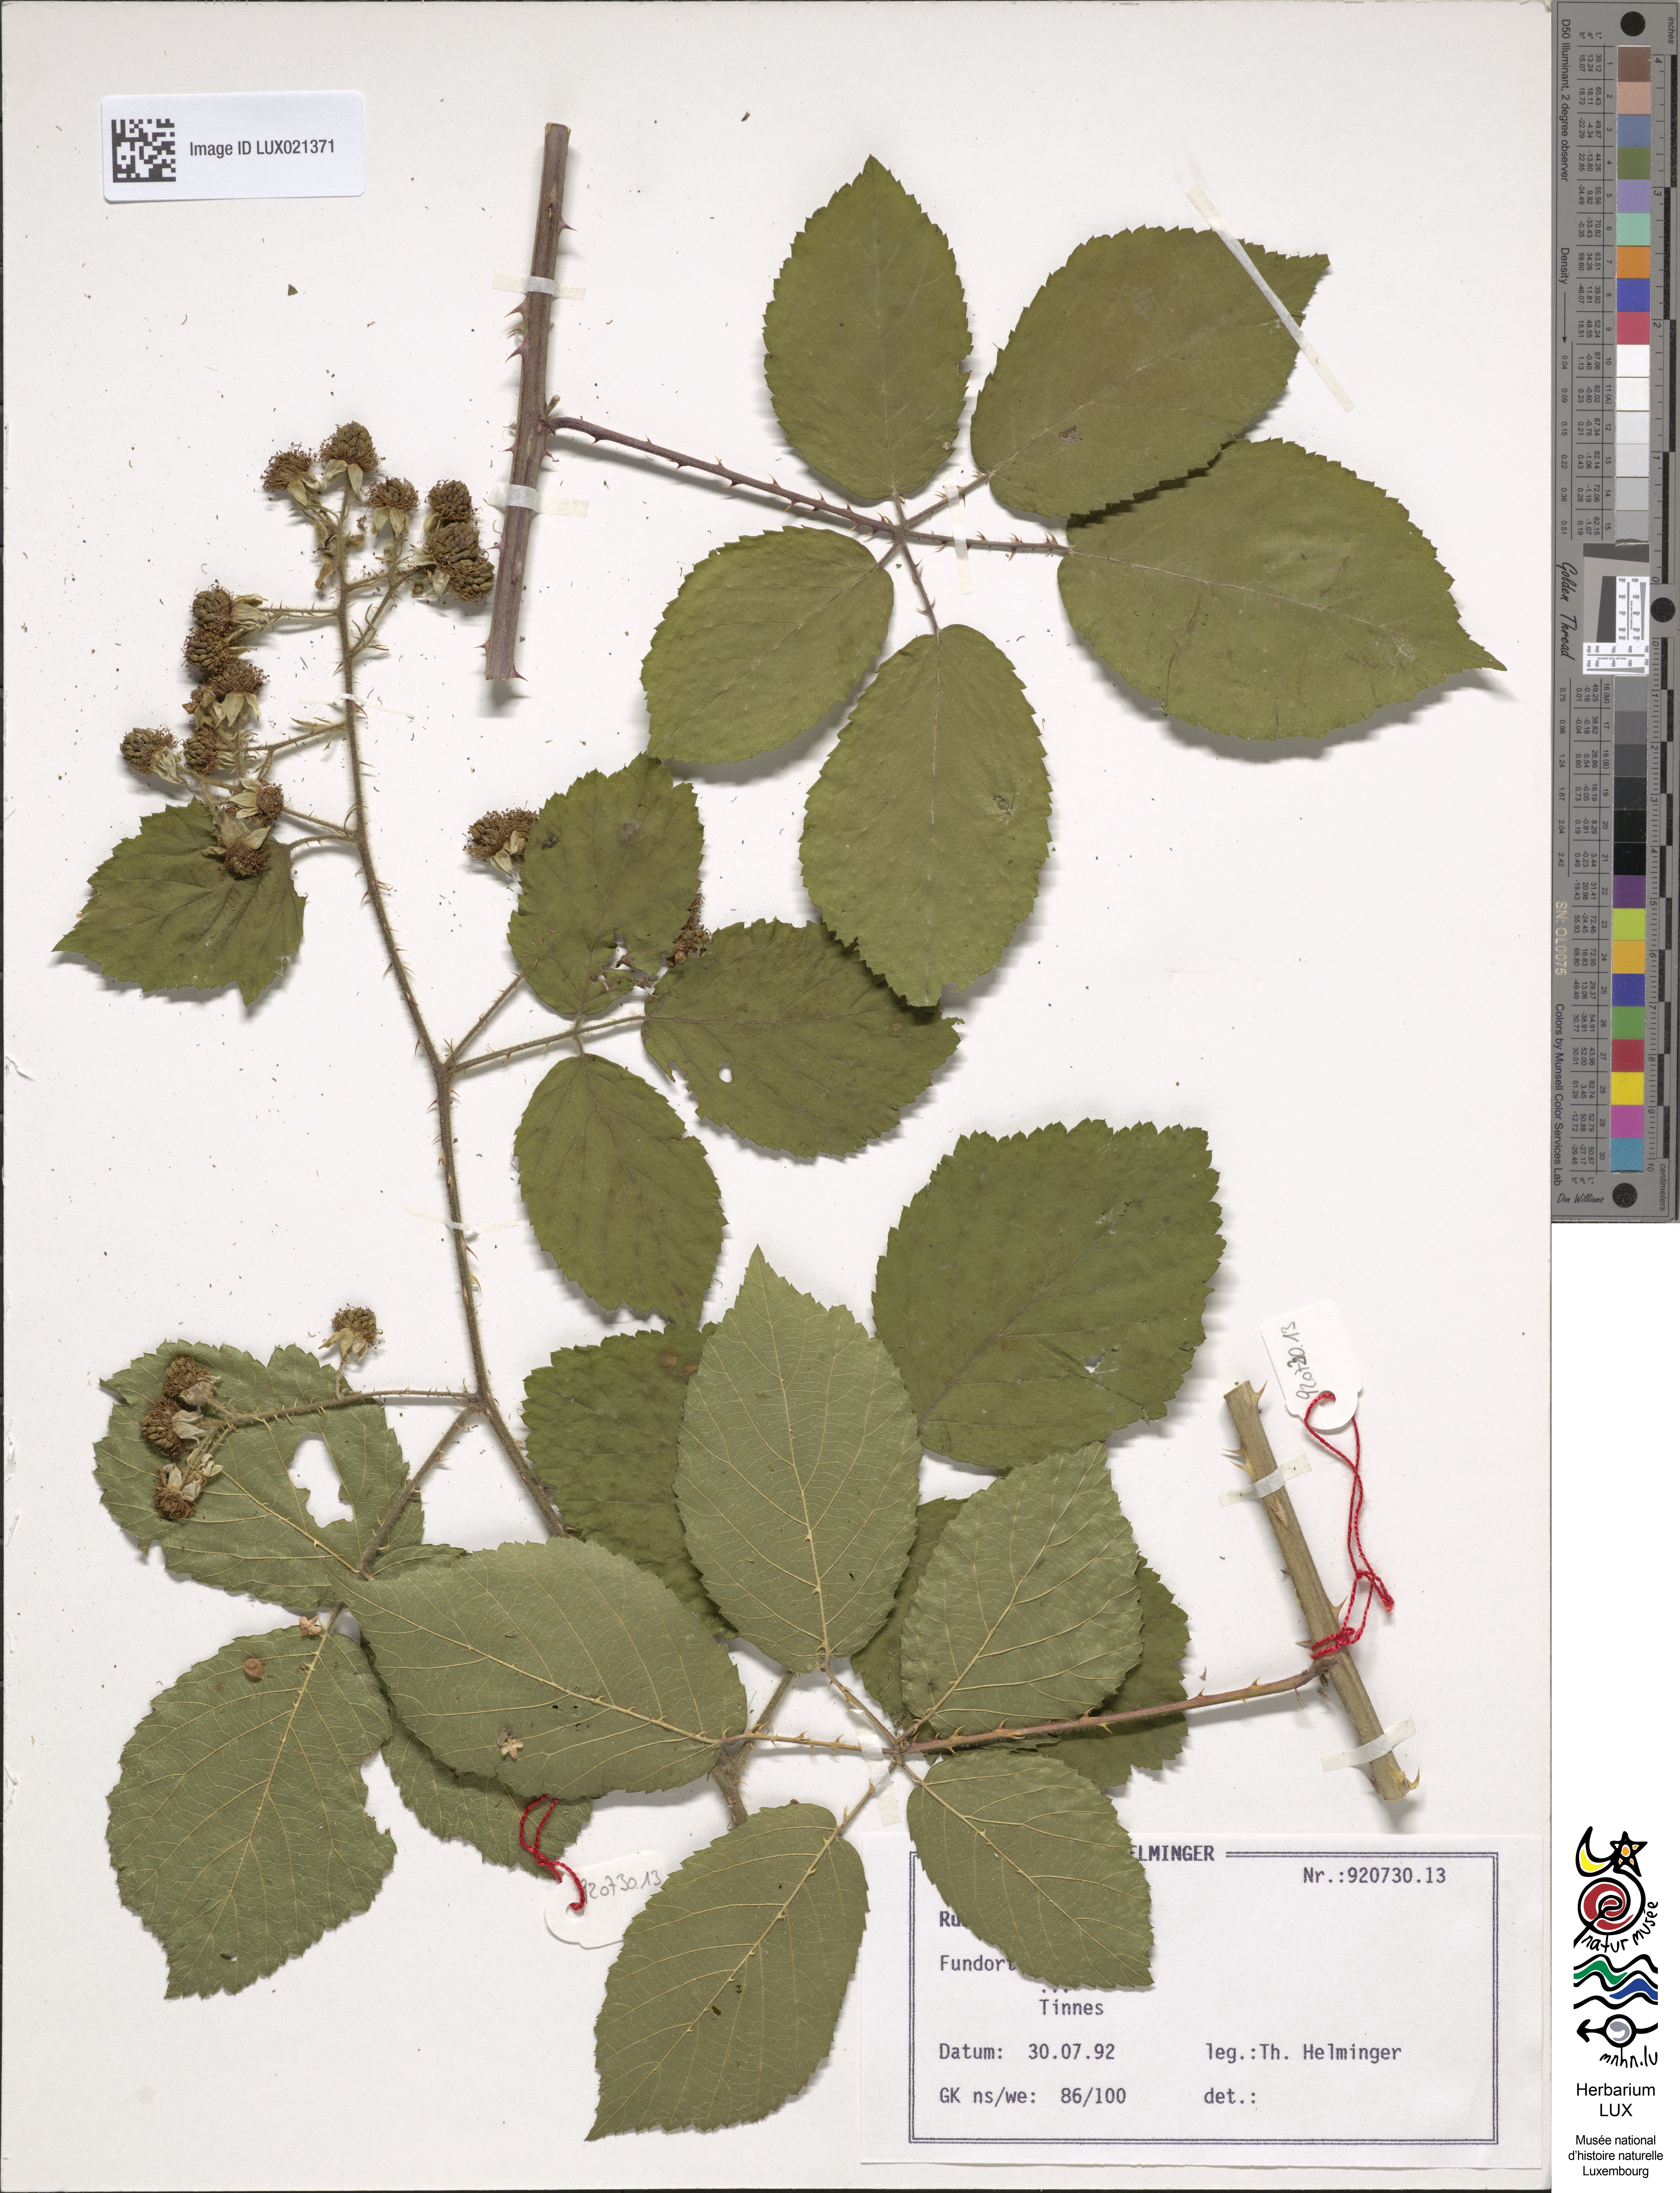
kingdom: Plantae
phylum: Tracheophyta
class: Magnoliopsida
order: Rosales
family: Rosaceae
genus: Rubus
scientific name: Rubus
